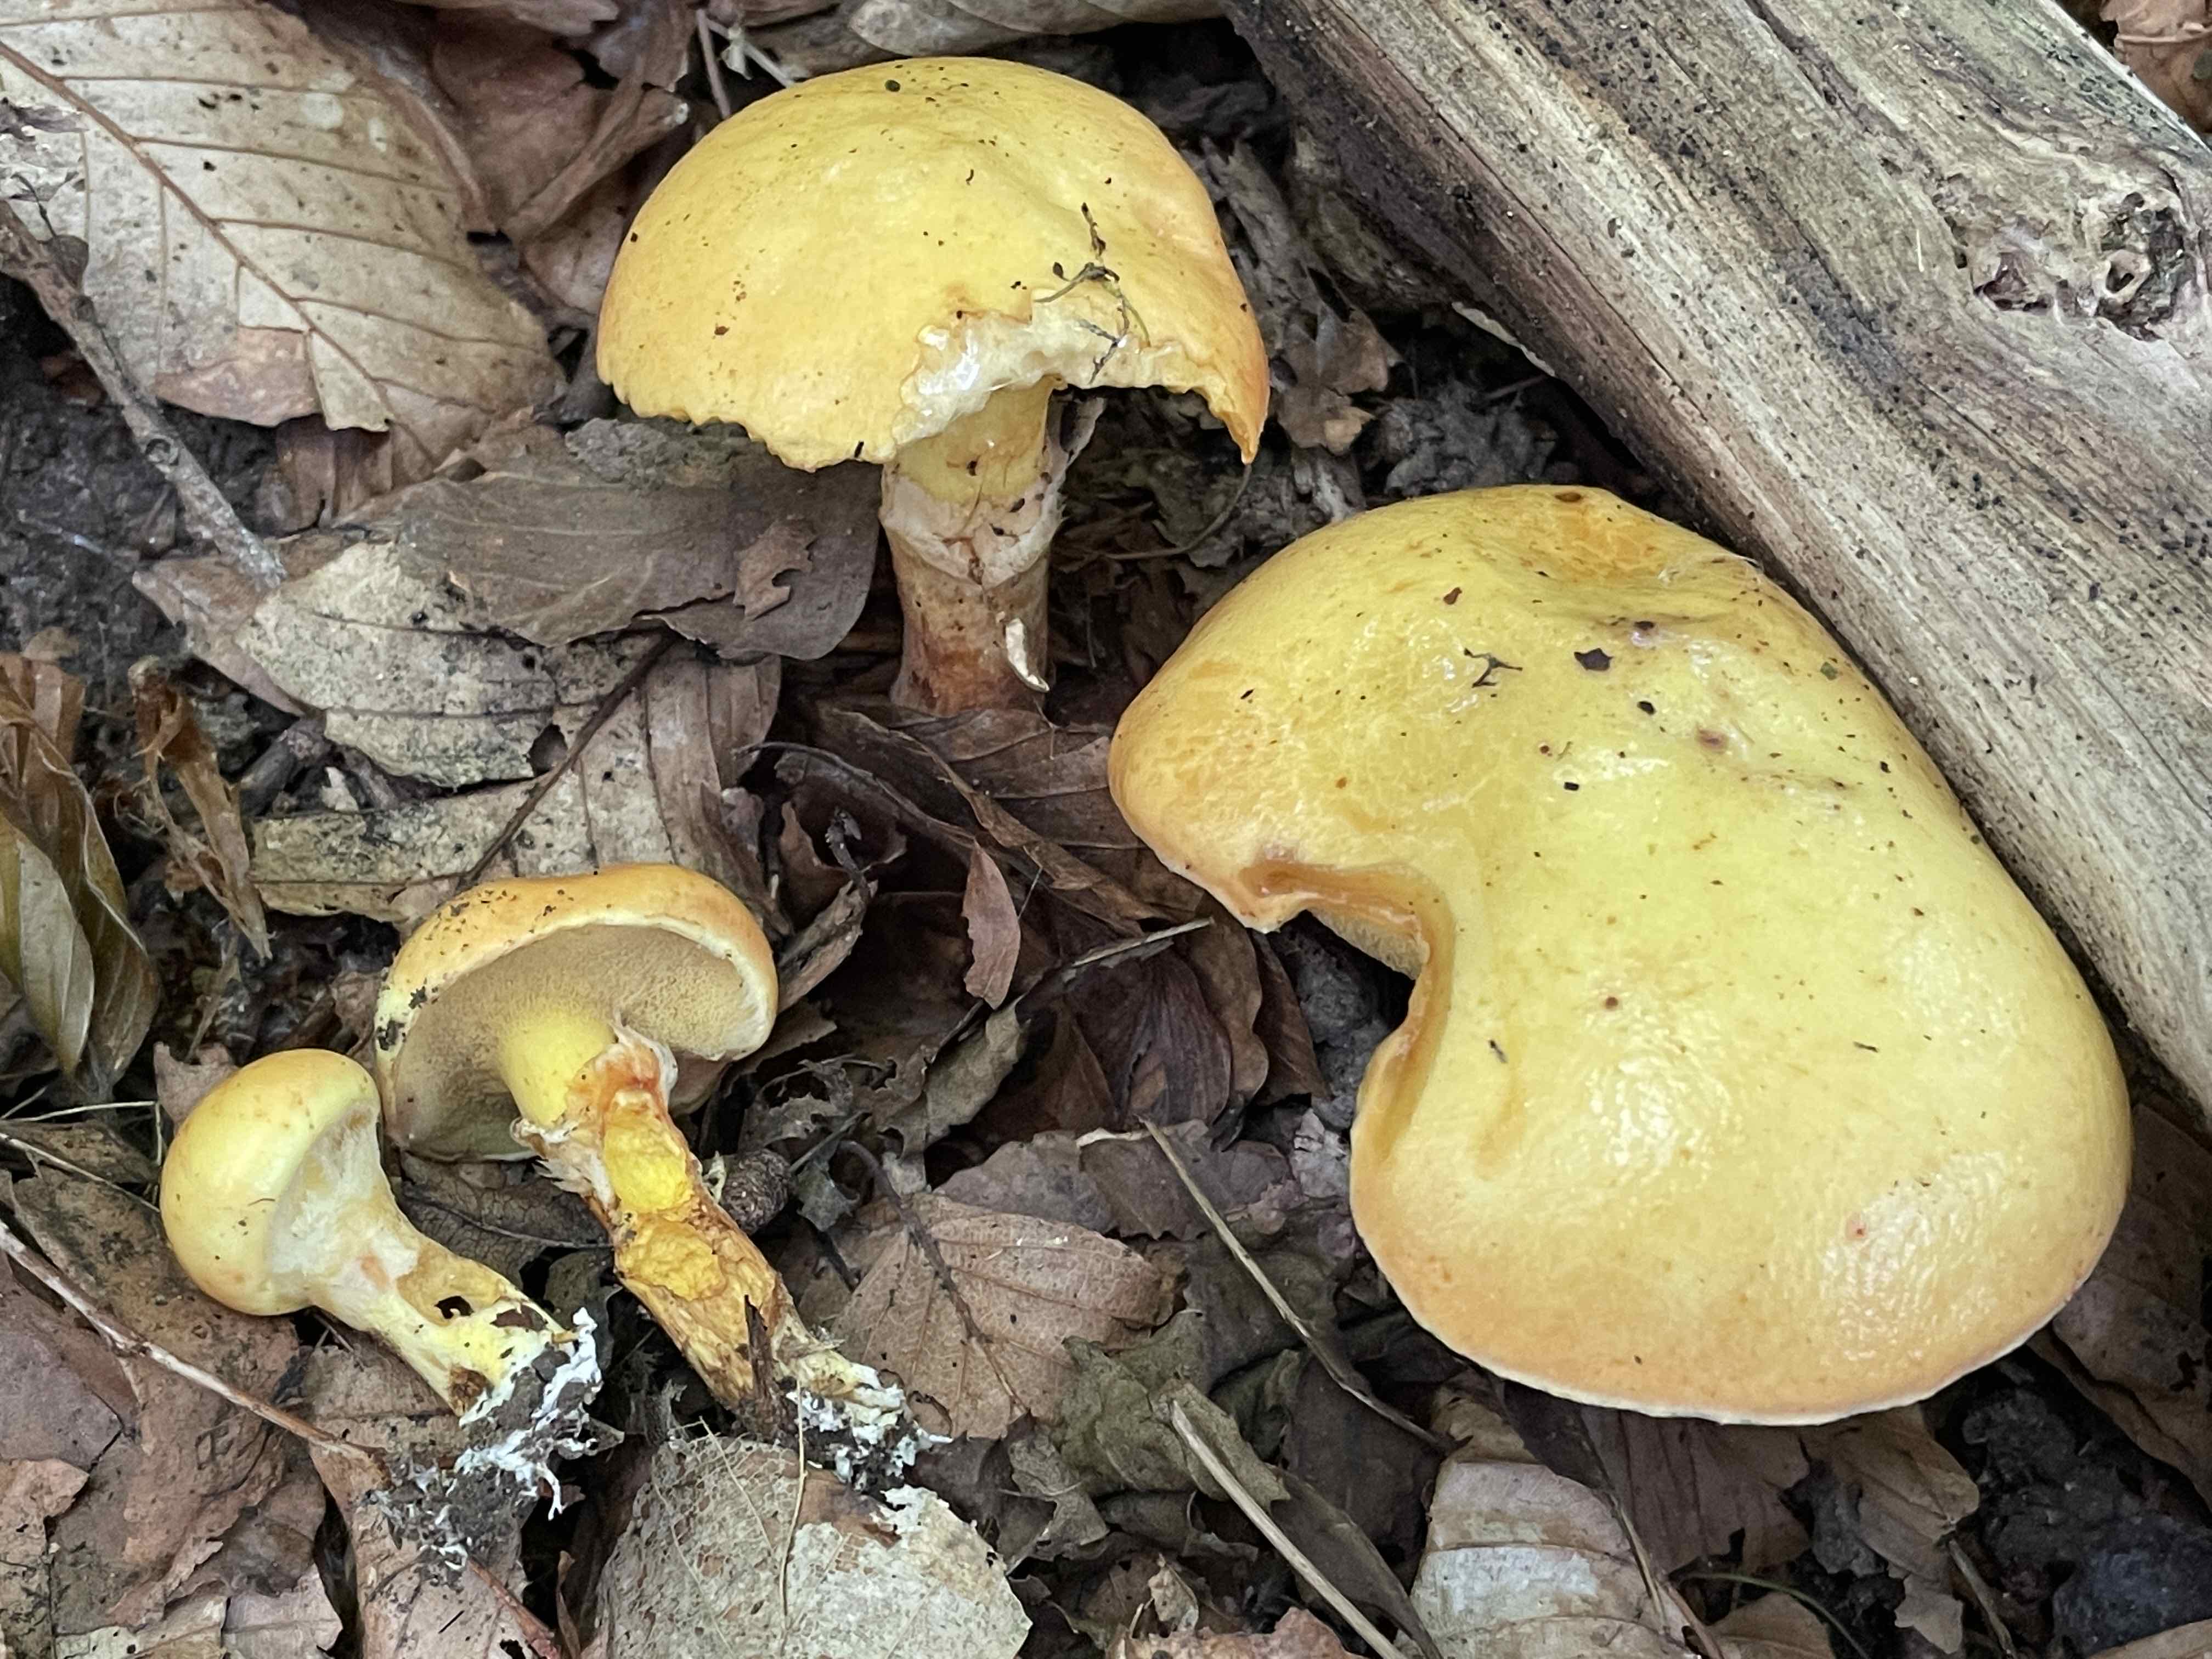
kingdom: Fungi
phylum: Basidiomycota
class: Agaricomycetes
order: Boletales
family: Suillaceae
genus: Suillus
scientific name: Suillus grevillei
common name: lærke-slimrørhat
